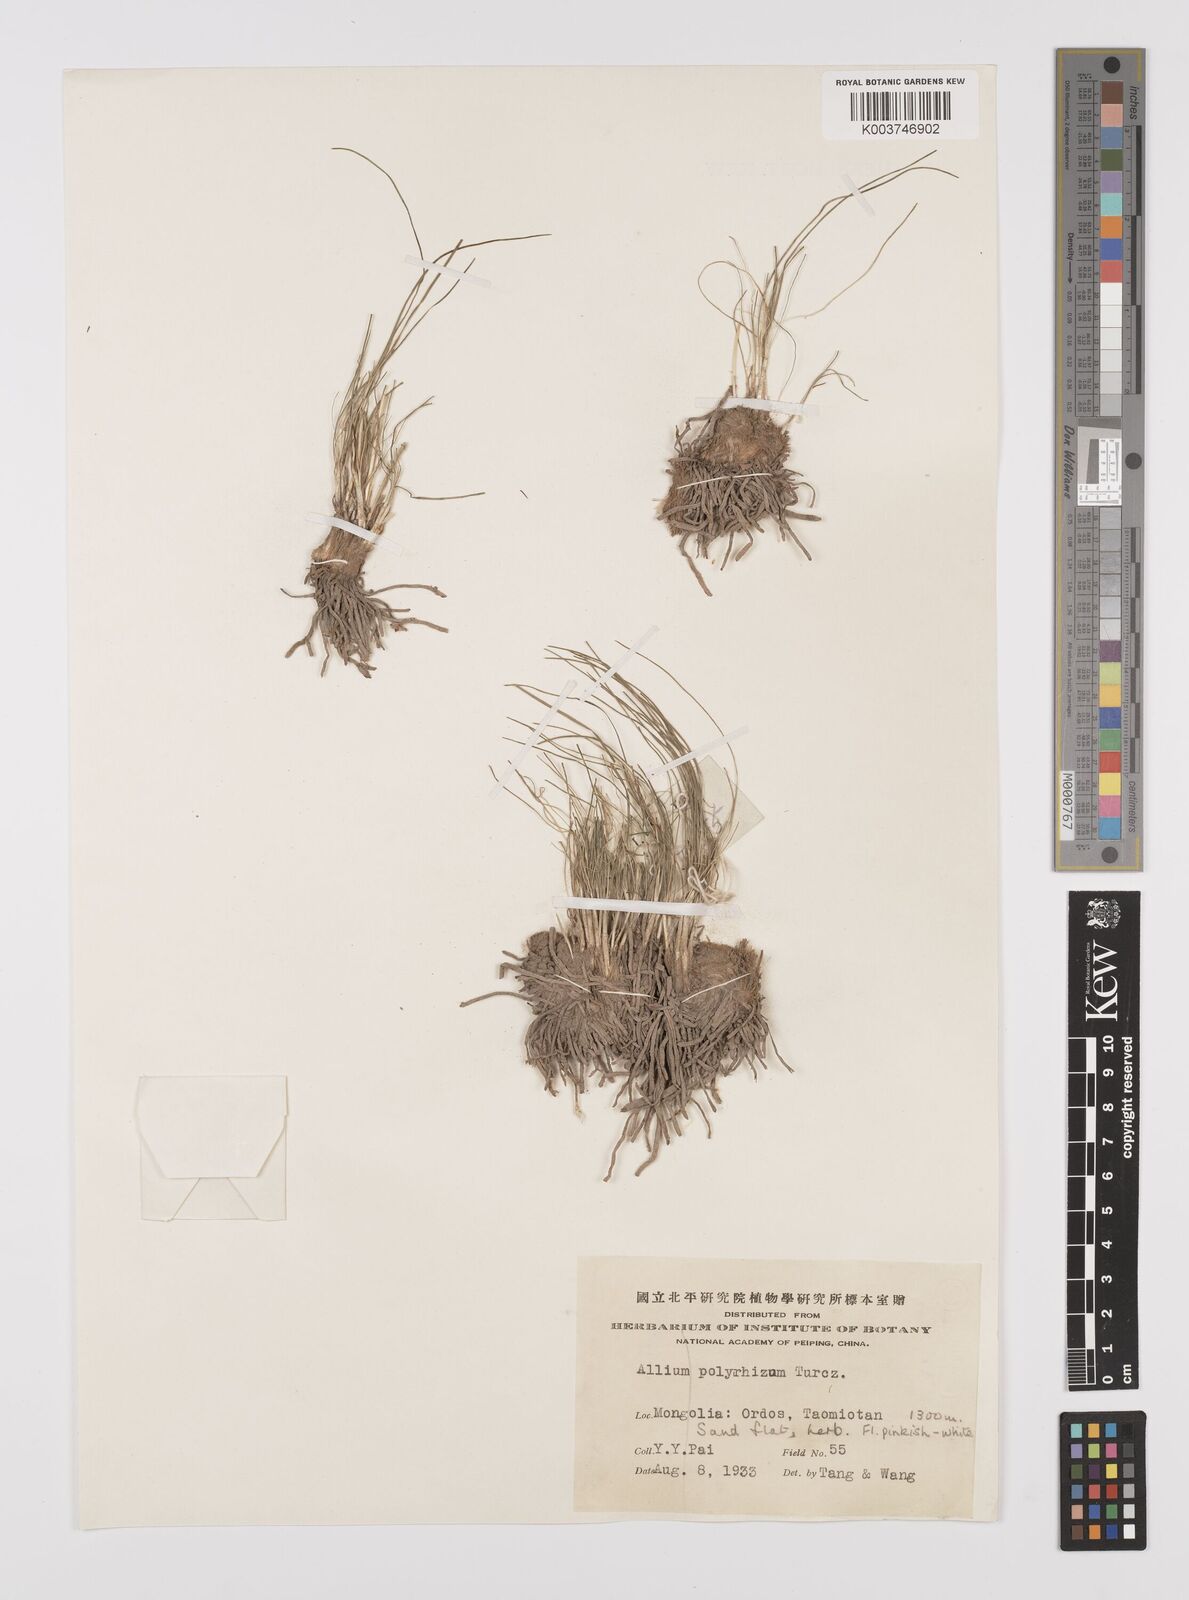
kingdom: Plantae
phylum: Tracheophyta
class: Liliopsida
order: Asparagales
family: Amaryllidaceae
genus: Allium
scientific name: Allium polyrhizum
